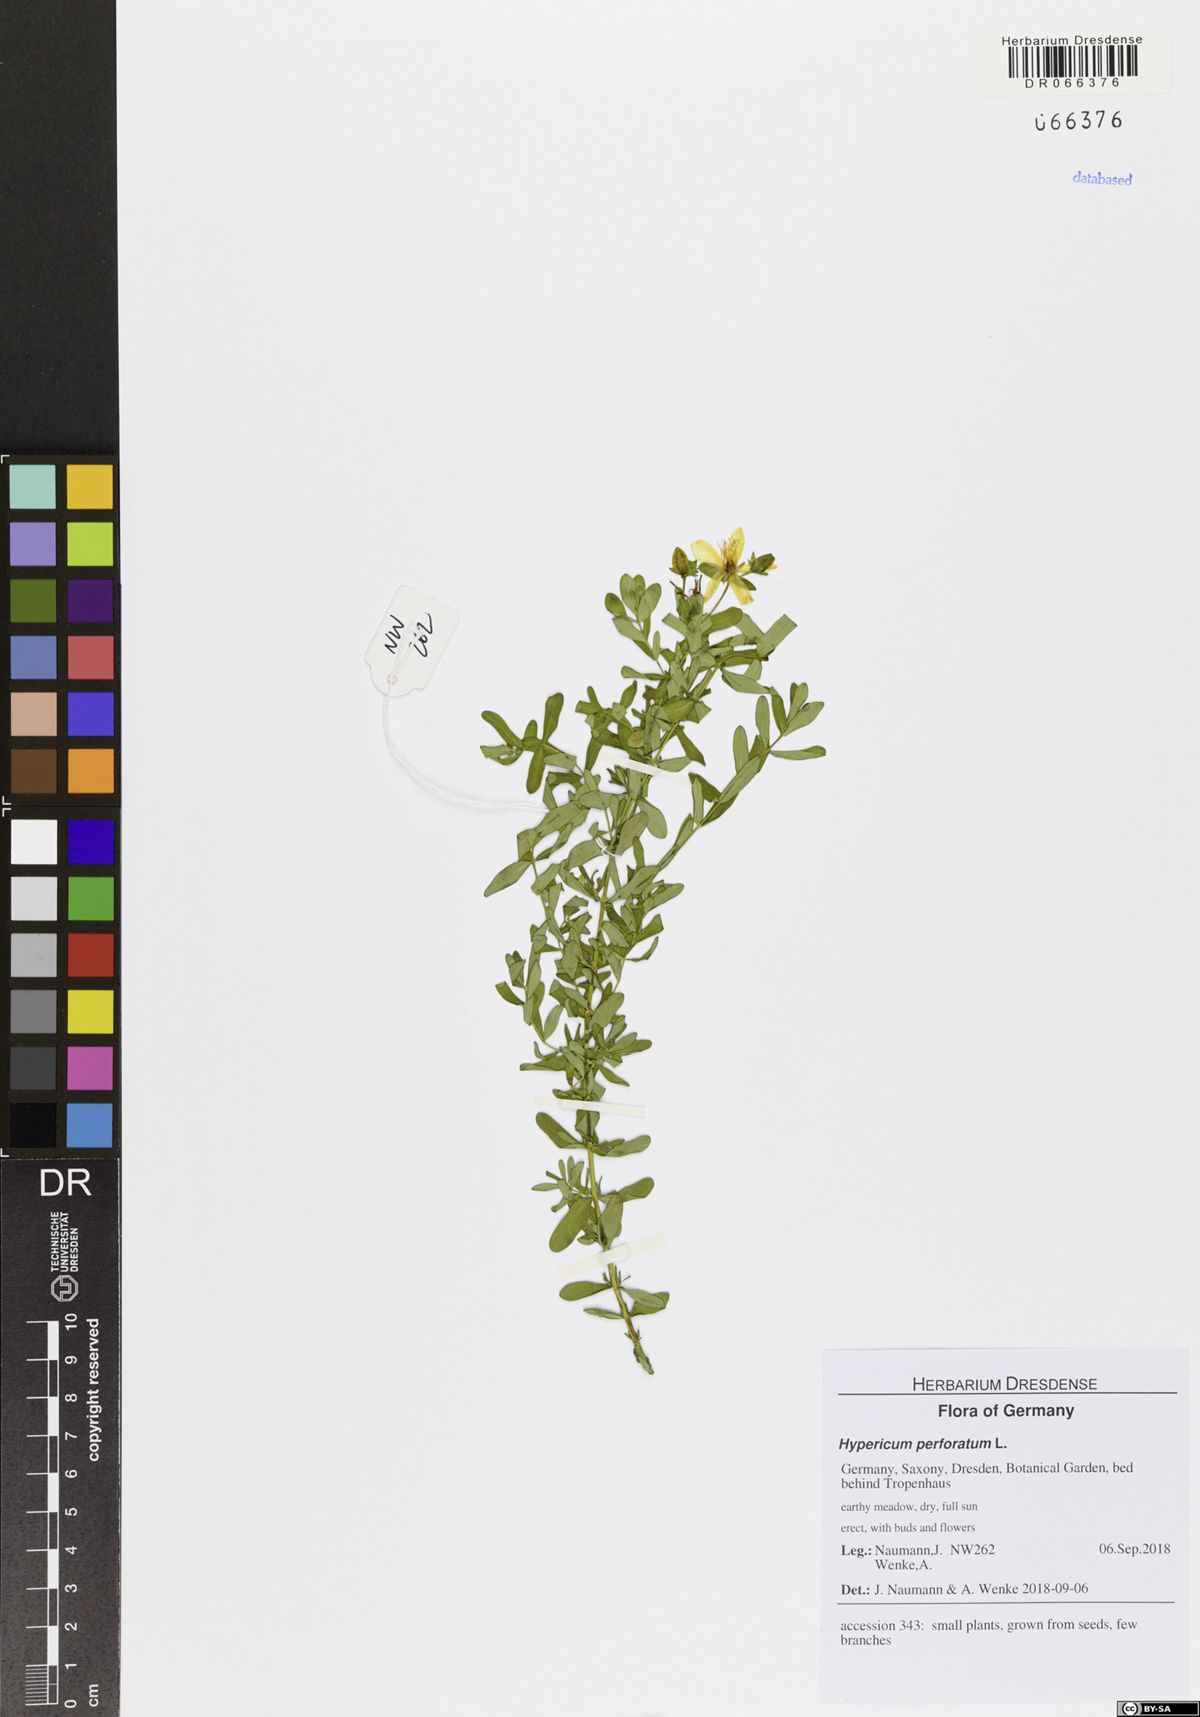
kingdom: Plantae
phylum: Tracheophyta
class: Magnoliopsida
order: Malpighiales
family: Hypericaceae
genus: Hypericum
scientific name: Hypericum perforatum
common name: Common st. johnswort
